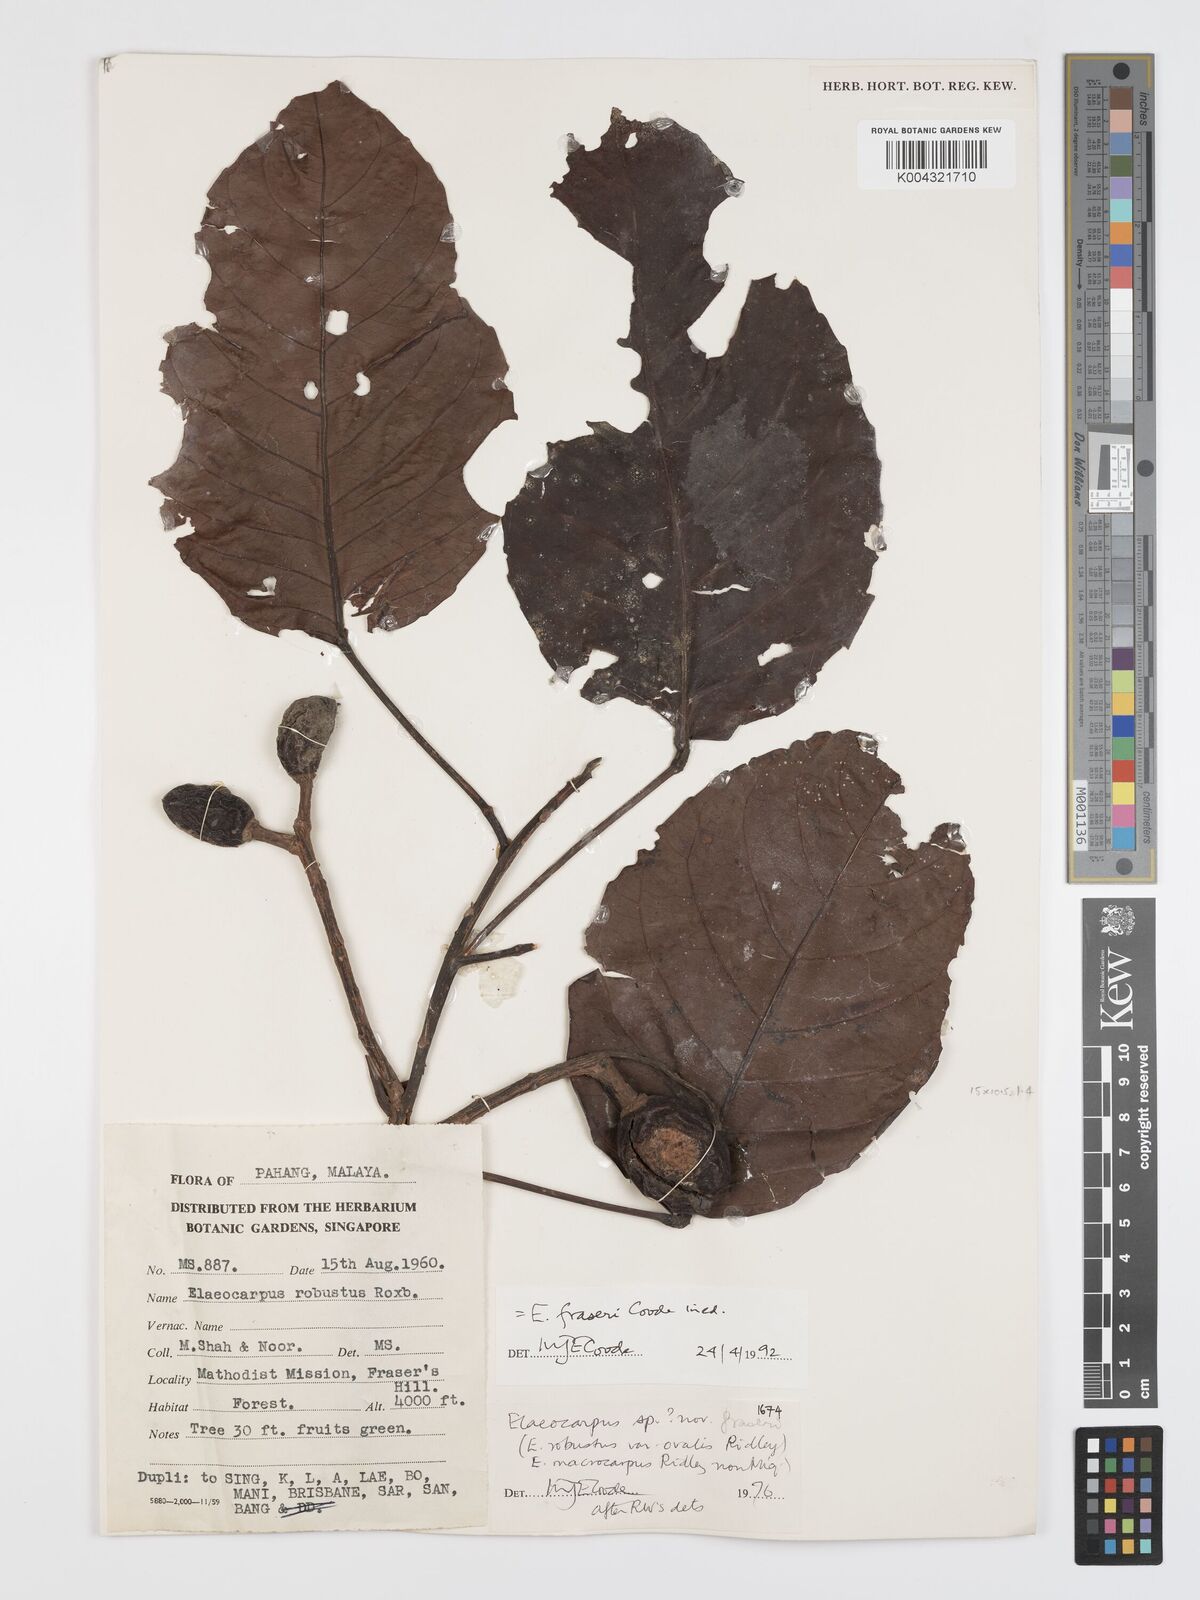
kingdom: Plantae
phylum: Tracheophyta
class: Magnoliopsida
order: Oxalidales
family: Elaeocarpaceae
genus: Elaeocarpus
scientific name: Elaeocarpus robustus
